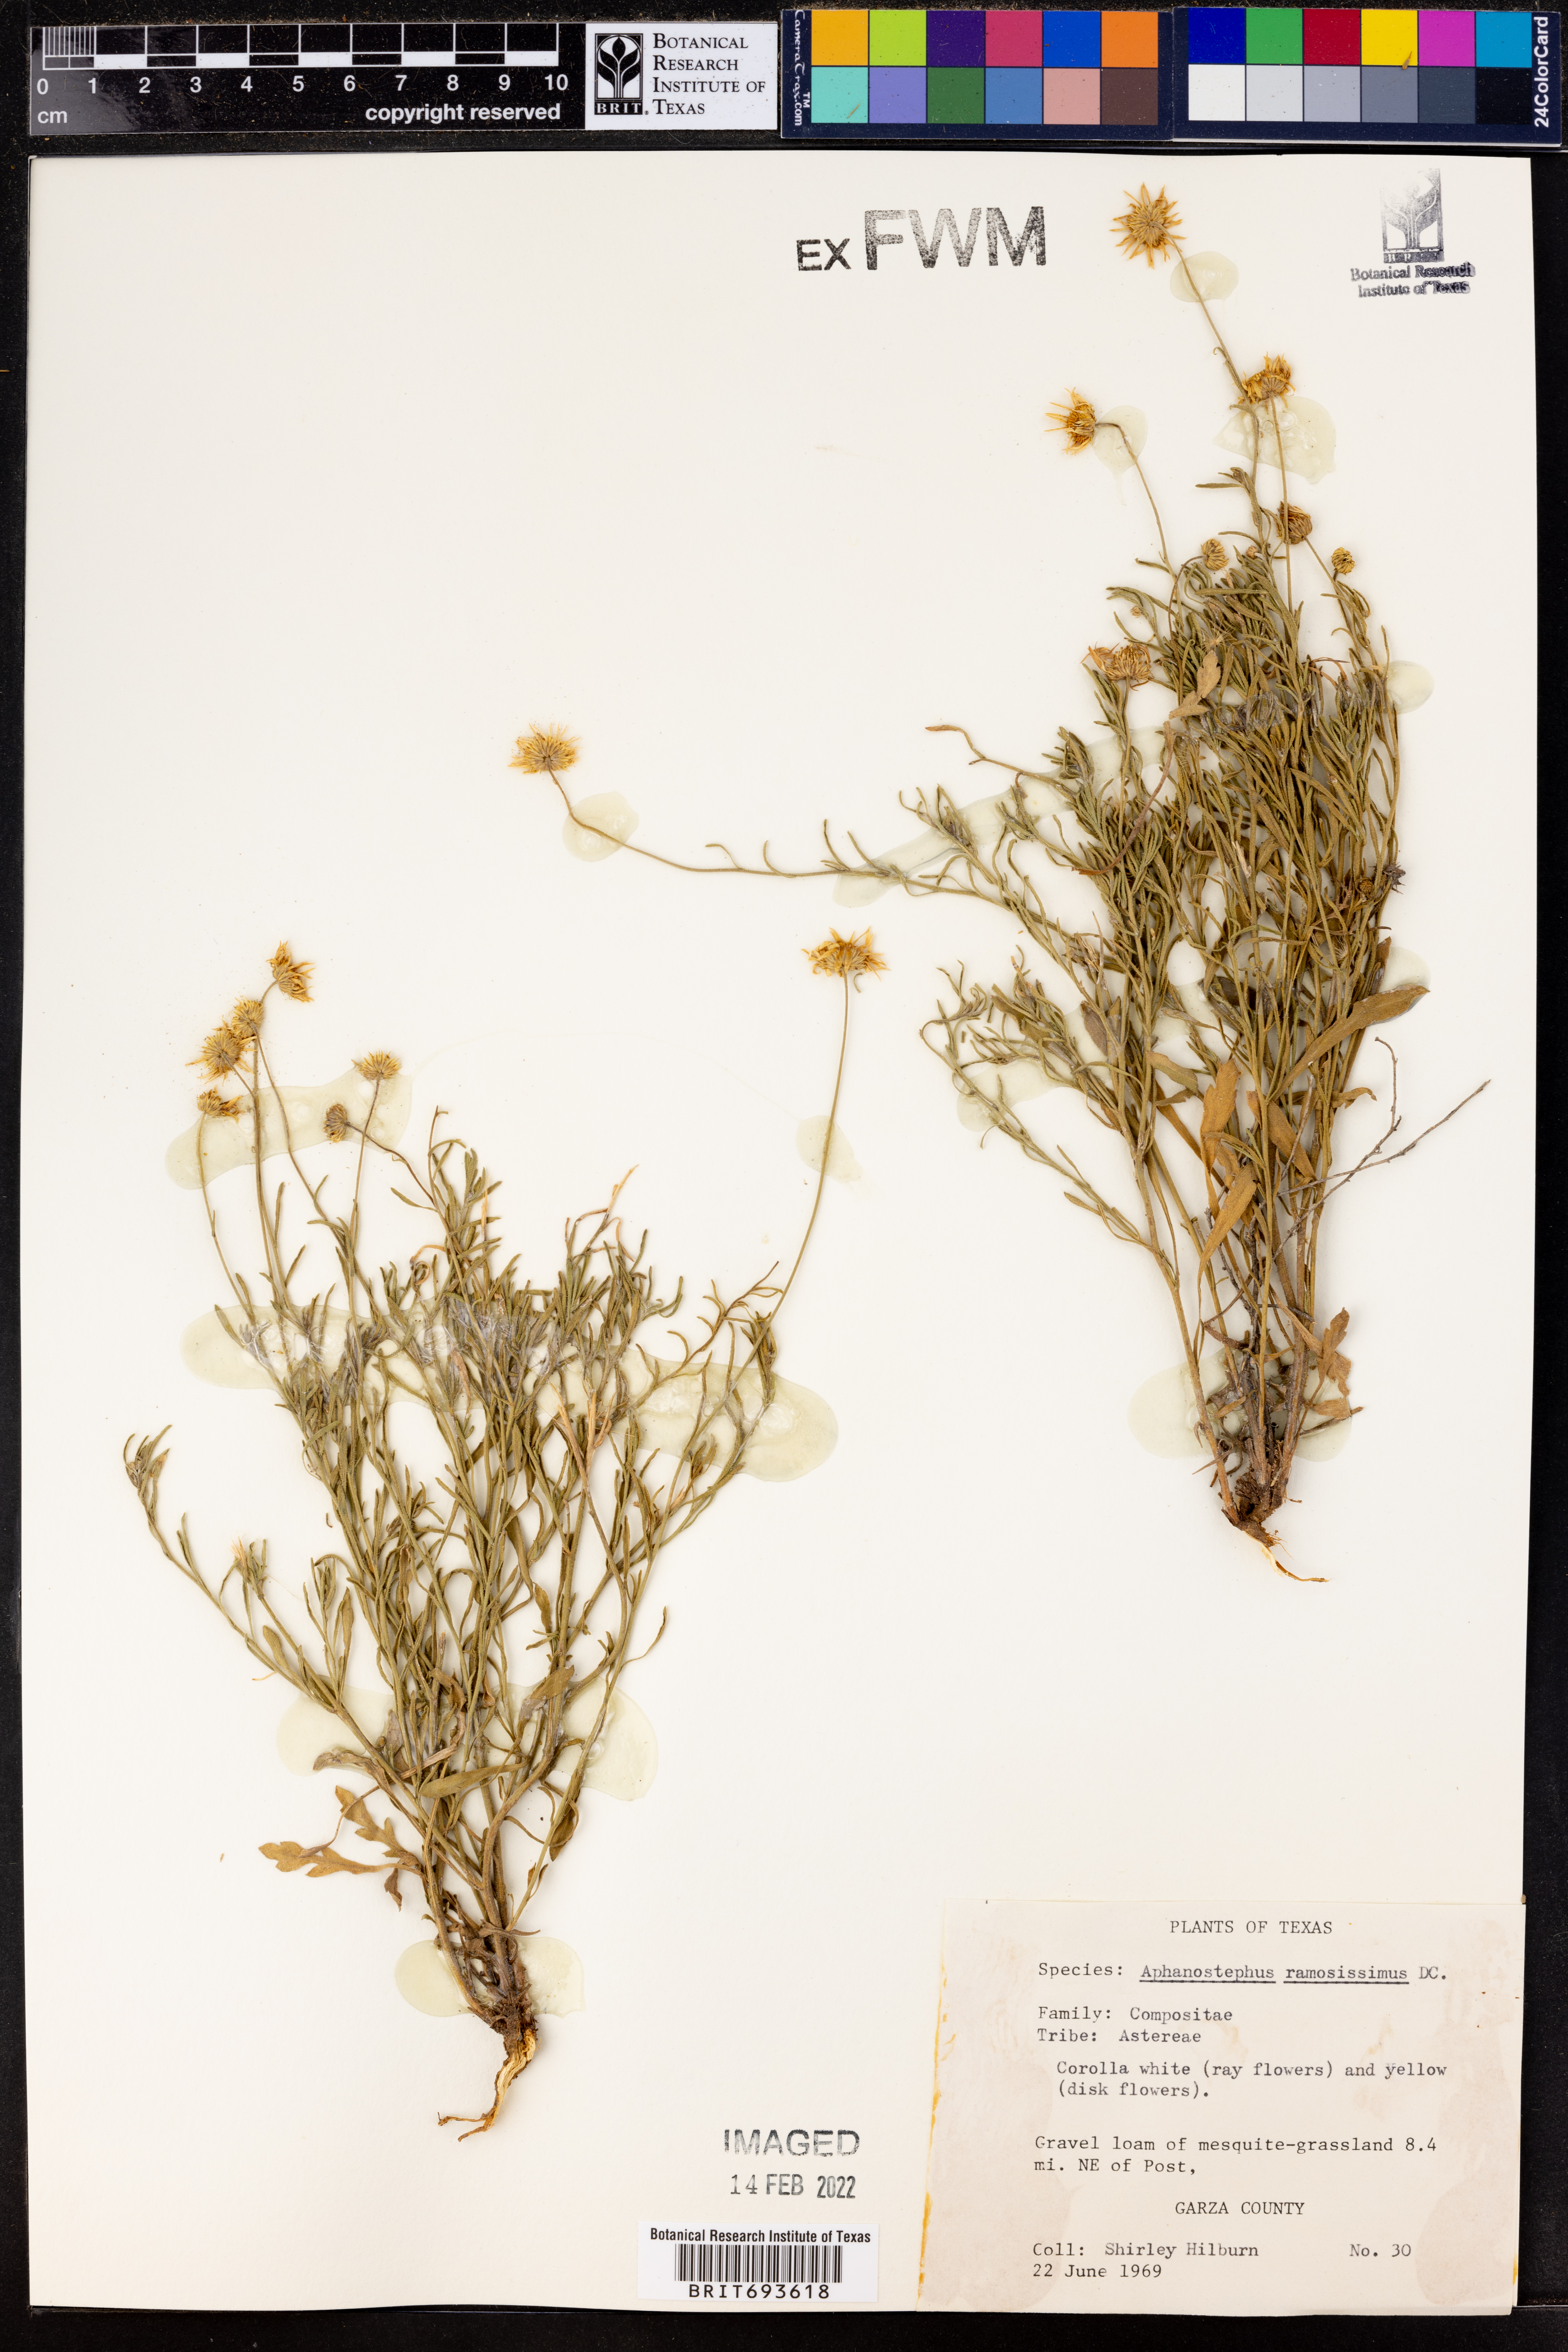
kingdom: Plantae
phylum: Tracheophyta
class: Magnoliopsida
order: Asterales
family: Asteraceae
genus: Aphanostephus
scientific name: Aphanostephus ramosissimus
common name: Plains lazy daisy
